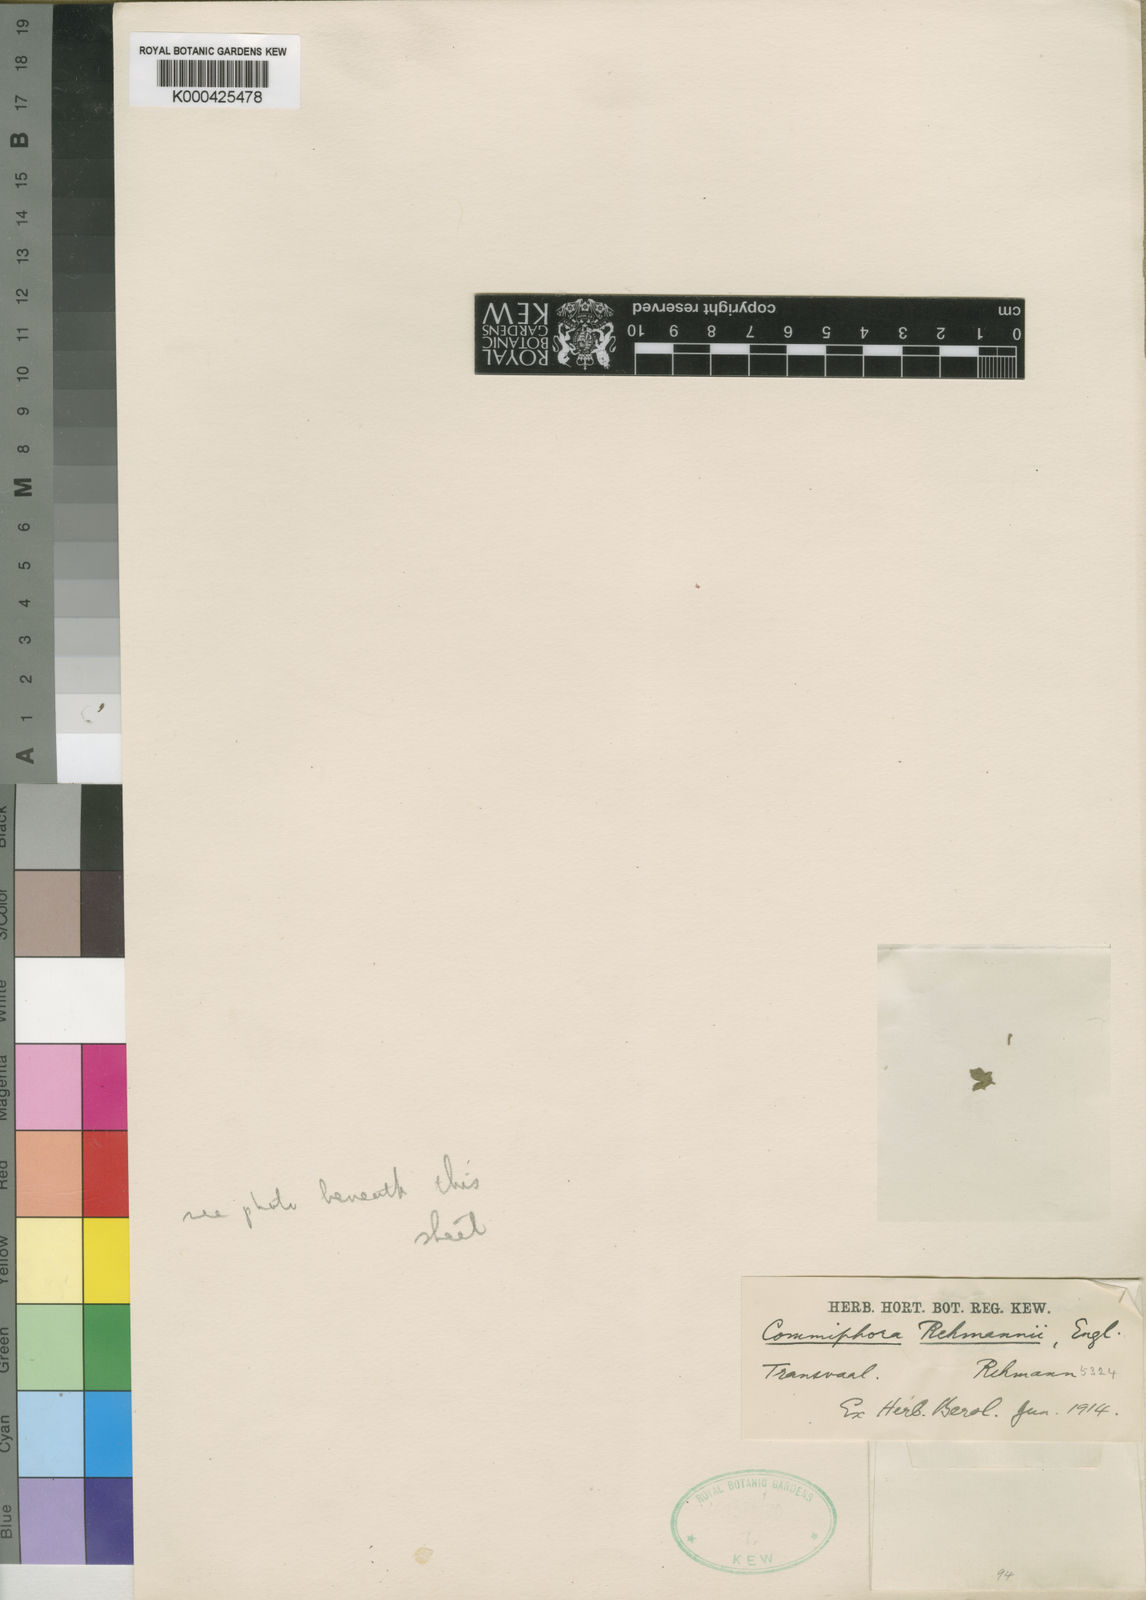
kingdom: Plantae
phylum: Tracheophyta
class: Magnoliopsida
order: Sapindales
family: Burseraceae
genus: Commiphora
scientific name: Commiphora angolensis
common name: Poison-grub
